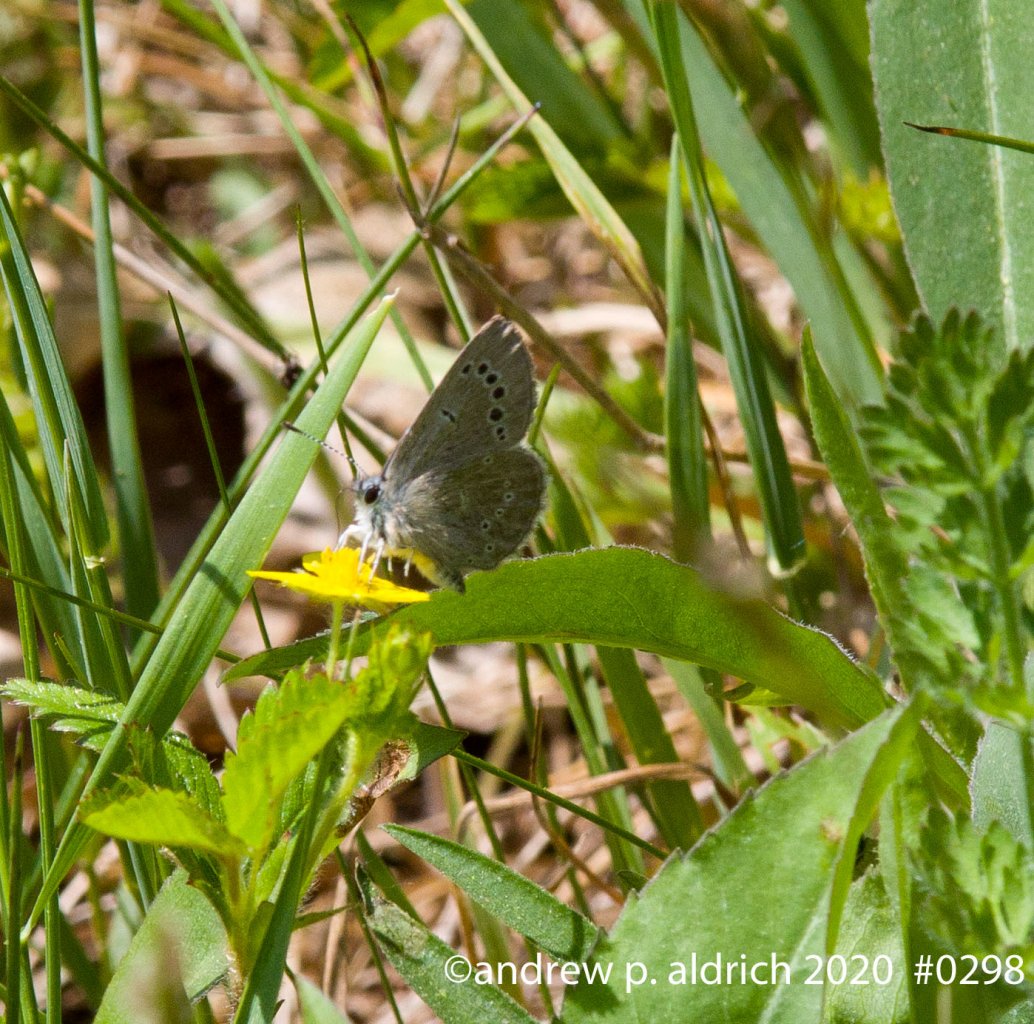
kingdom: Animalia
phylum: Arthropoda
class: Insecta
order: Lepidoptera
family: Lycaenidae
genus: Glaucopsyche
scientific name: Glaucopsyche lygdamus
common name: Silvery Blue
